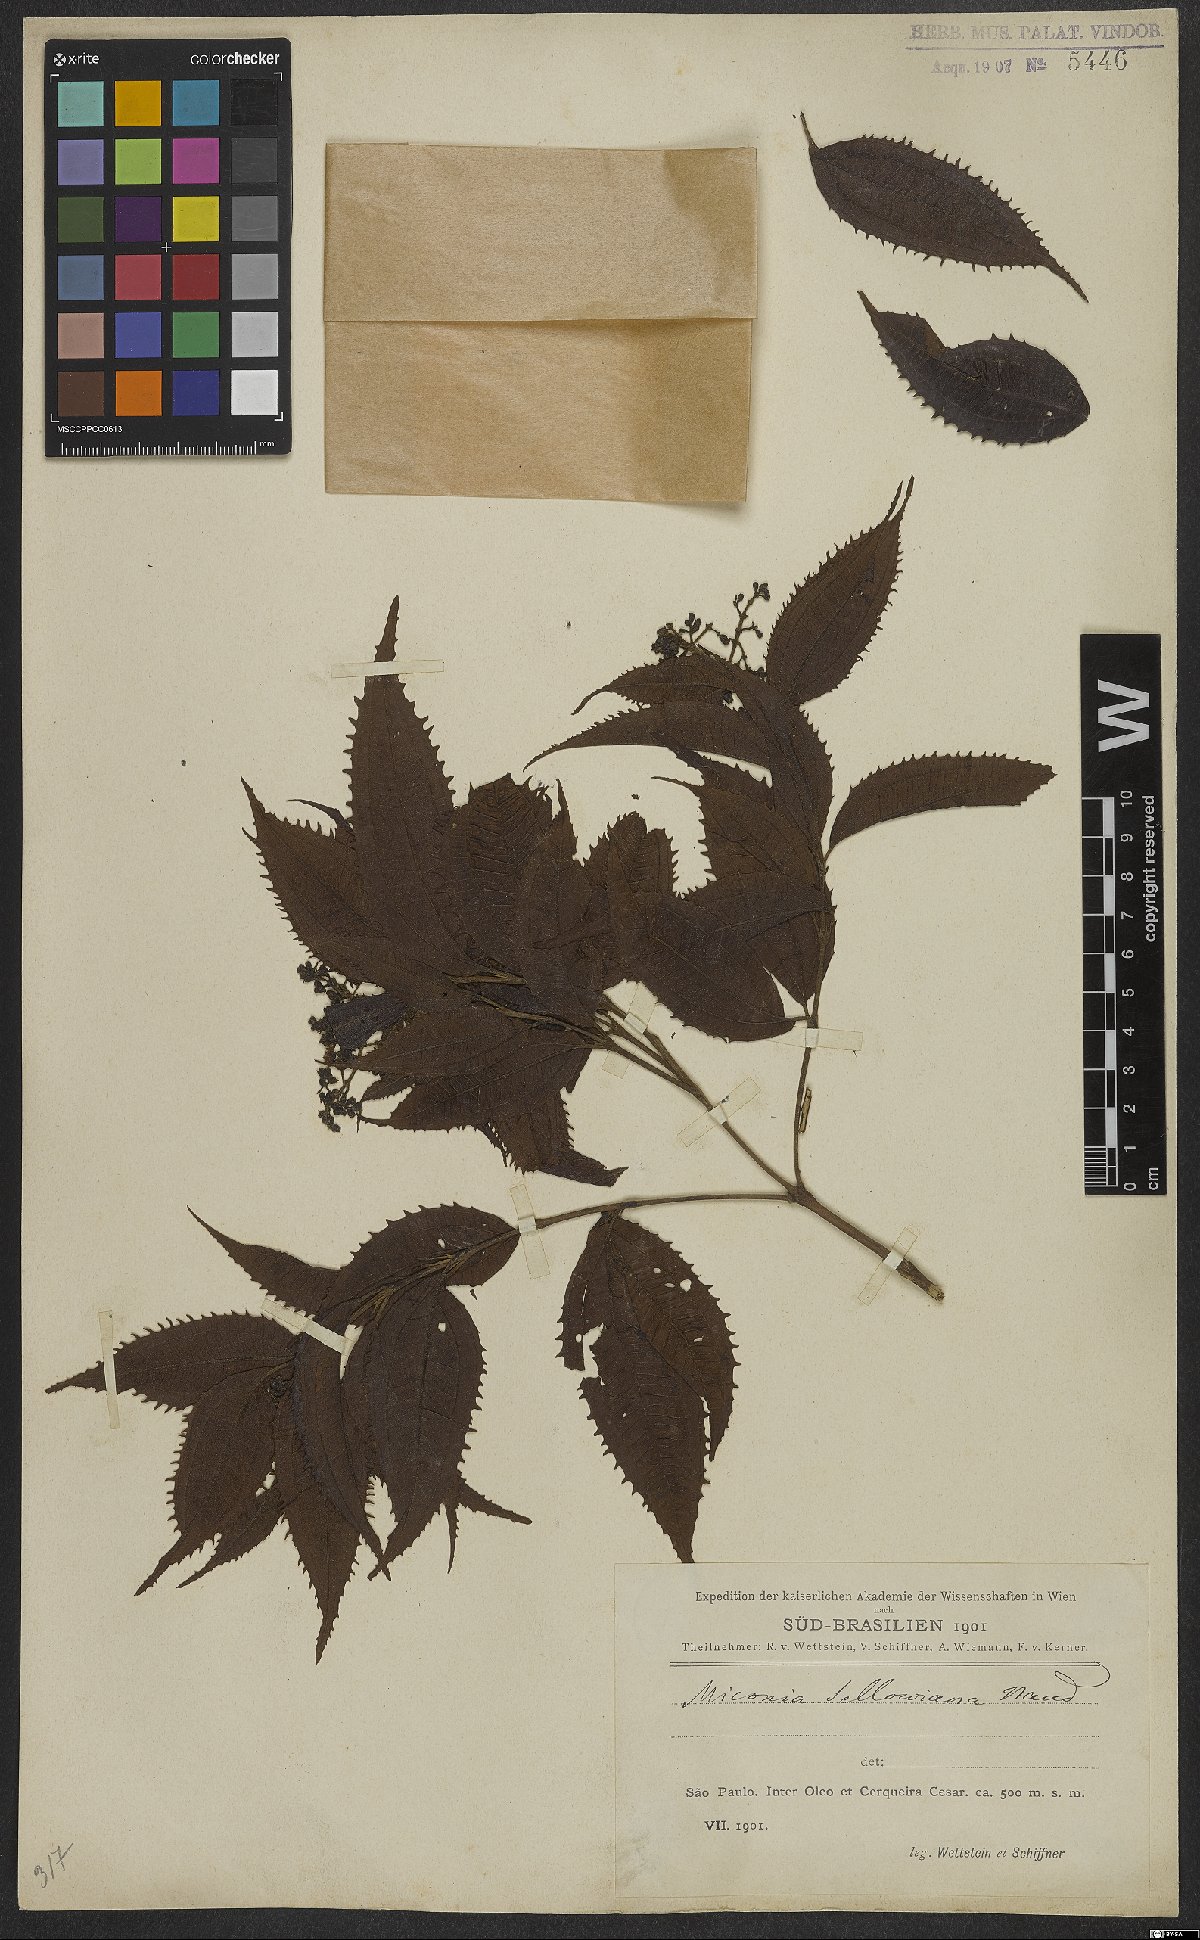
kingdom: Plantae
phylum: Tracheophyta
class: Magnoliopsida
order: Myrtales
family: Melastomataceae
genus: Miconia
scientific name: Miconia sellowiana
